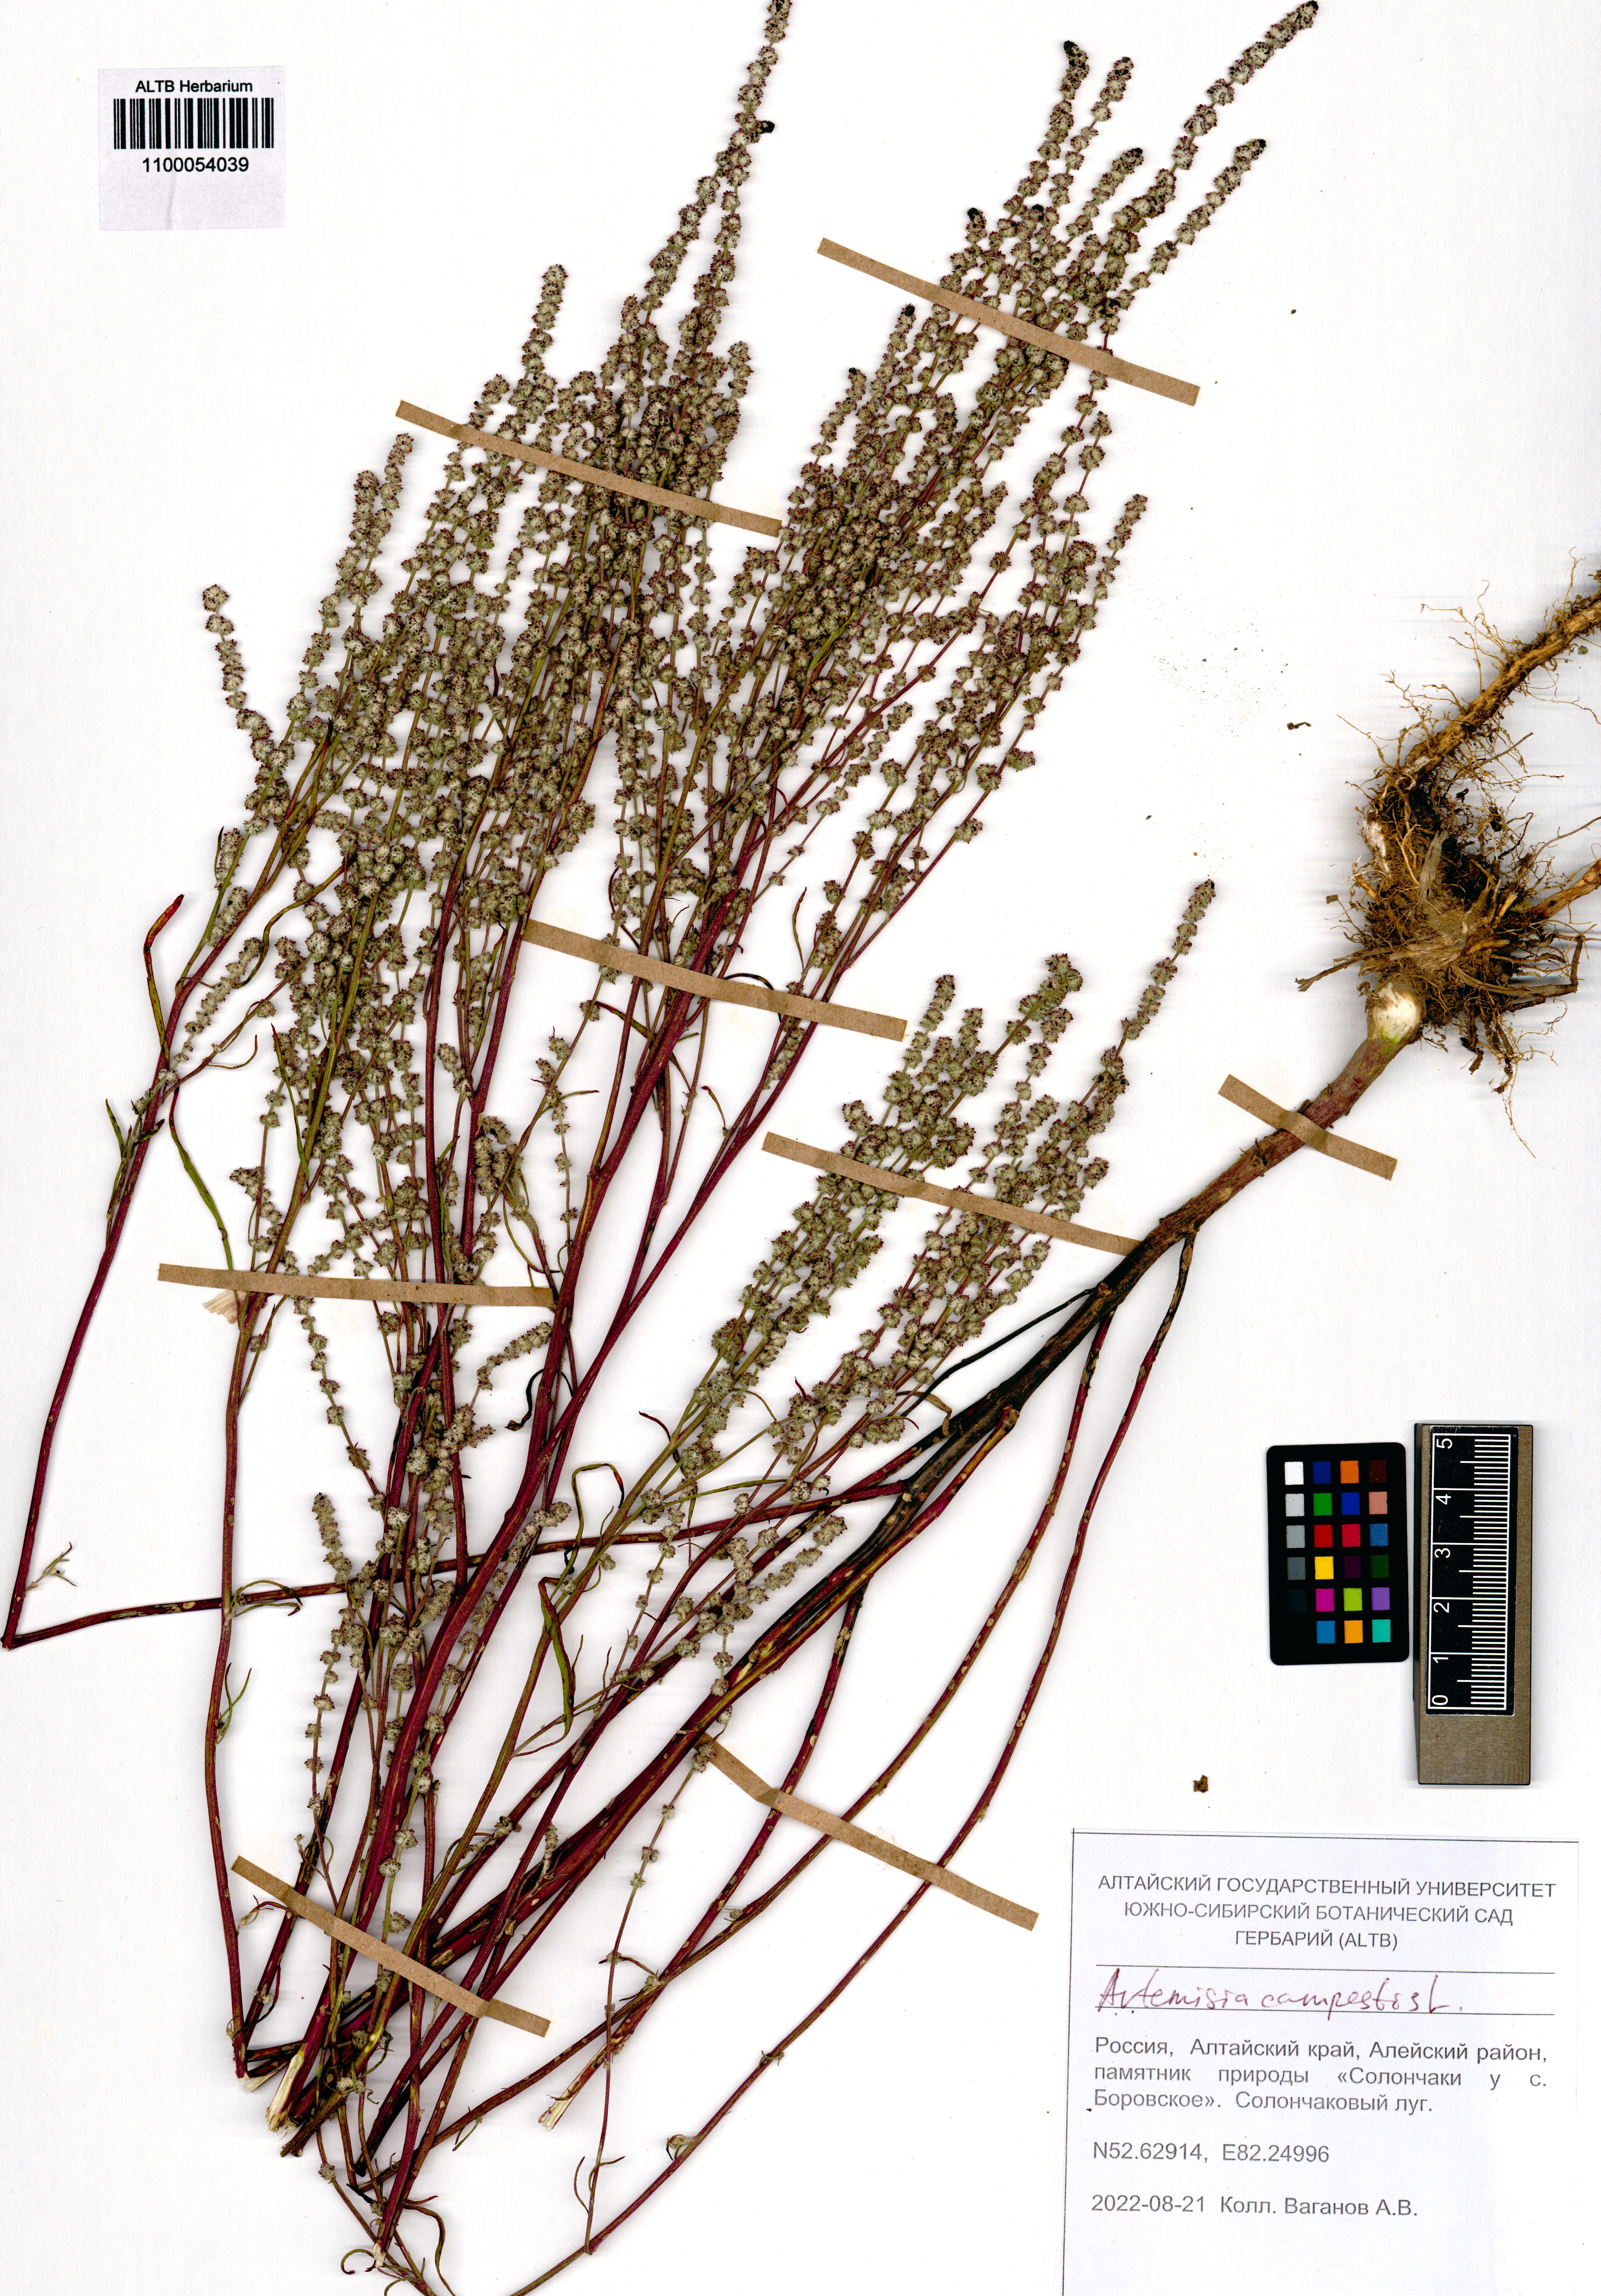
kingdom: Plantae
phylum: Tracheophyta
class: Magnoliopsida
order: Asterales
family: Asteraceae
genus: Artemisia
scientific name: Artemisia campestris
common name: Field wormwood
